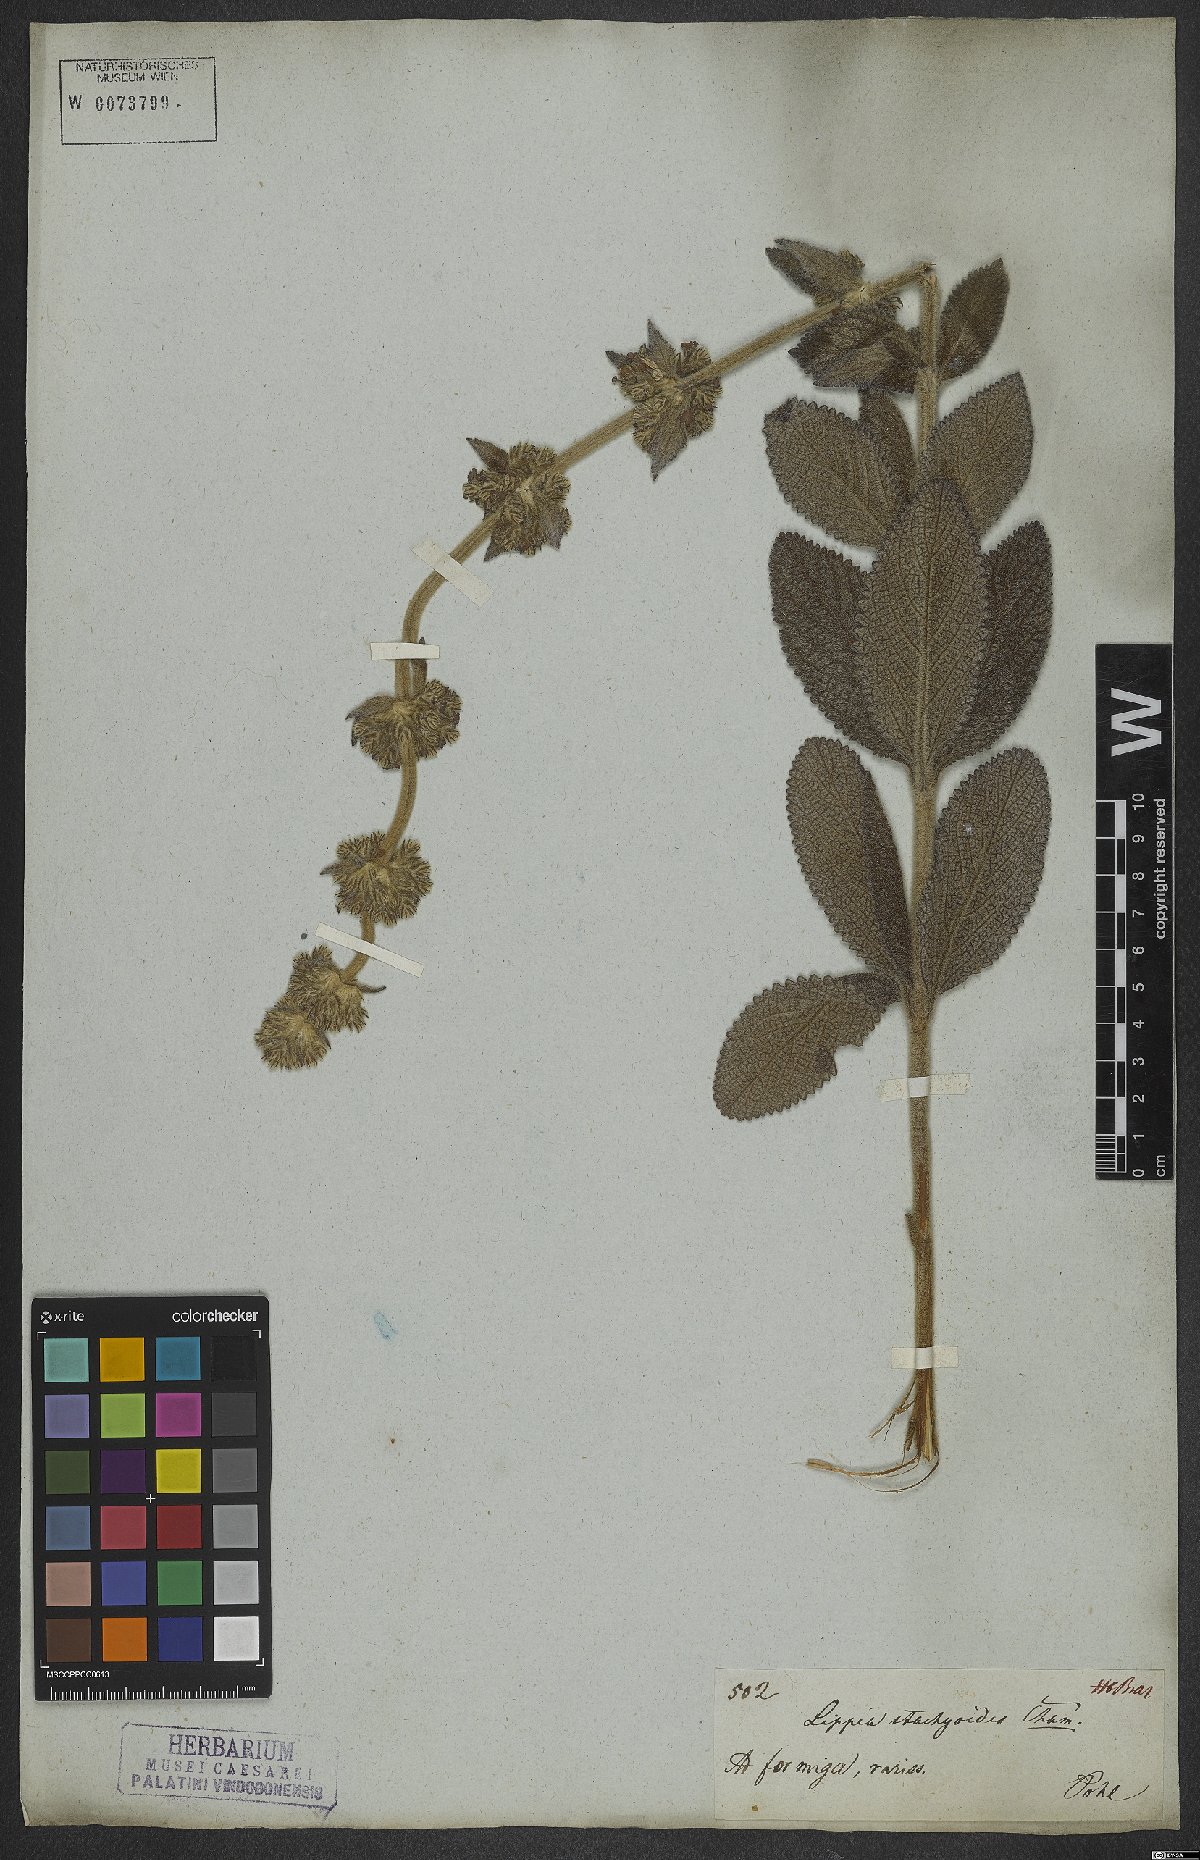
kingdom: Plantae
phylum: Tracheophyta
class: Magnoliopsida
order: Lamiales
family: Verbenaceae
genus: Lippia
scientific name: Lippia stachyoides
